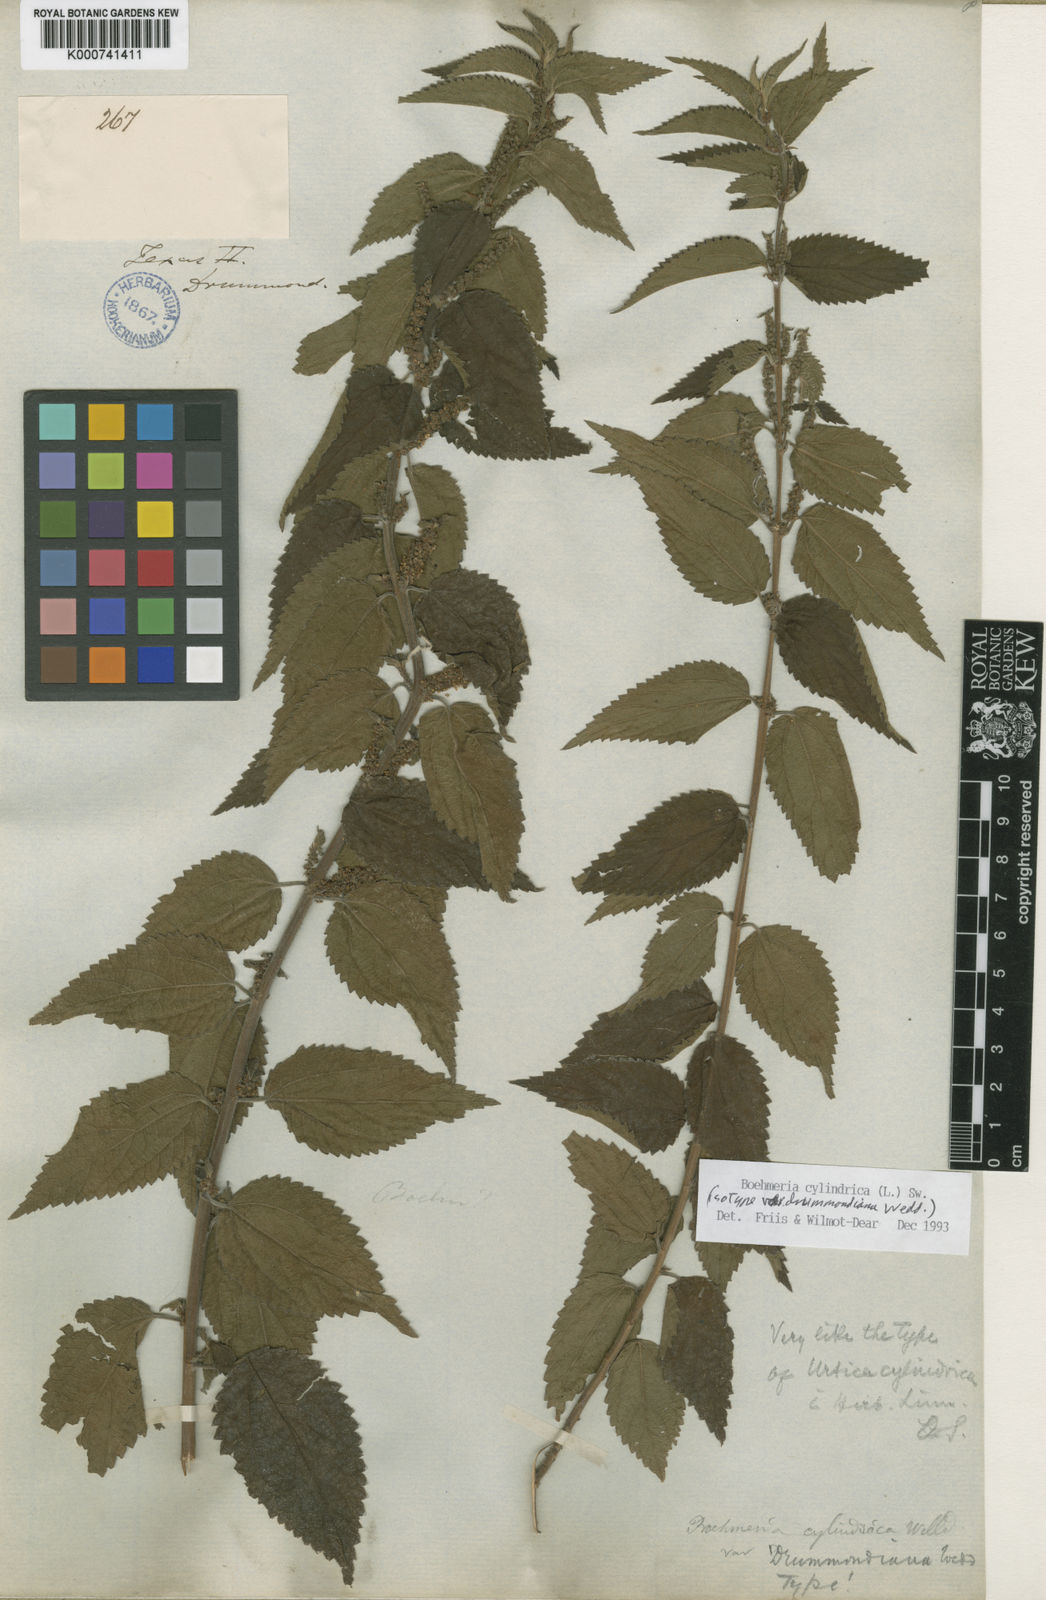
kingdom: Plantae
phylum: Tracheophyta
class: Magnoliopsida
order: Rosales
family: Urticaceae
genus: Boehmeria
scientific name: Boehmeria cylindrica
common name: Bog-hemp
